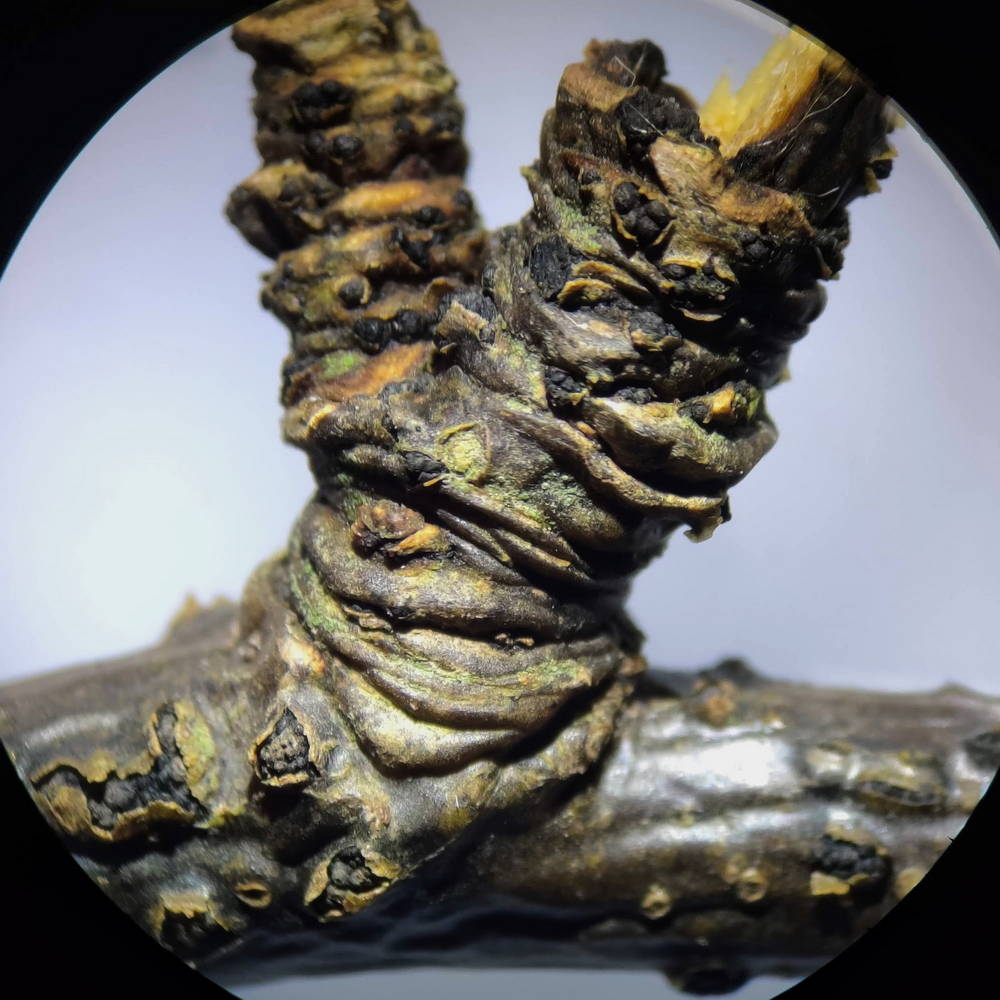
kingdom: Fungi
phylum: Ascomycota
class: Dothideomycetes
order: Pleosporales
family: Camarosporidiellaceae
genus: Camarosporidiella
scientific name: Camarosporidiella laburni
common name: guldregn-tykbær
